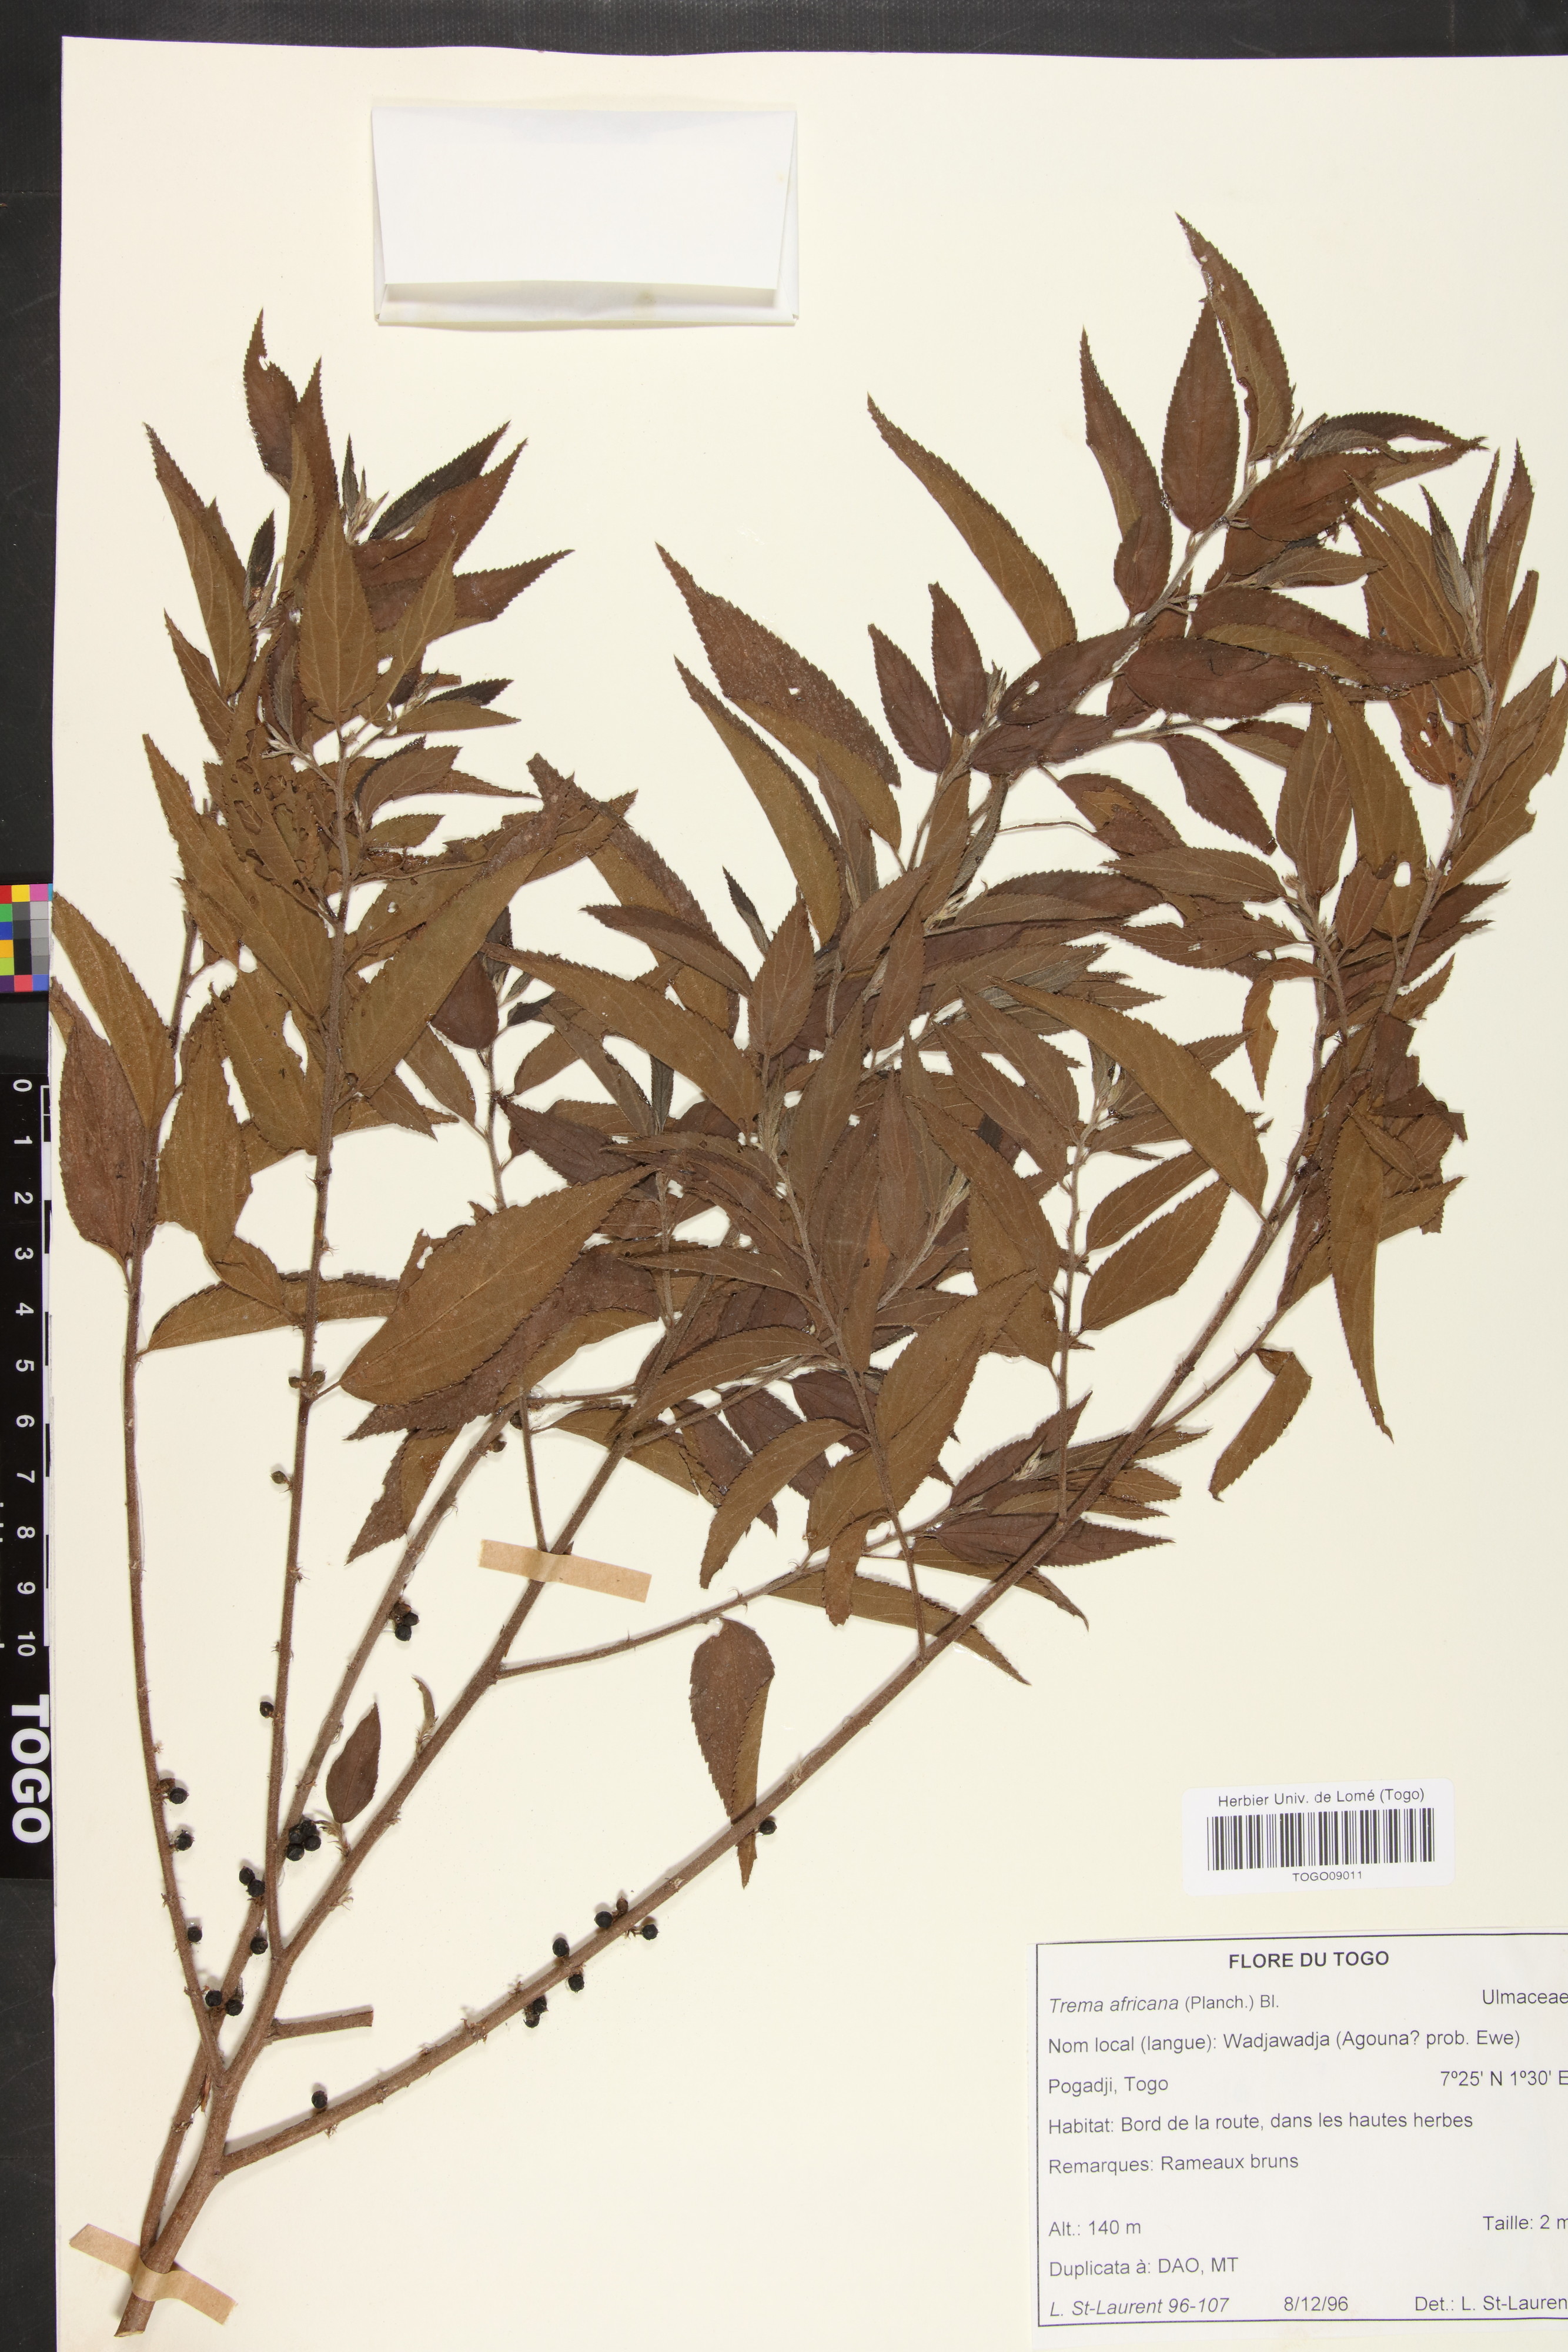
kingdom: Plantae
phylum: Tracheophyta
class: Magnoliopsida
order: Rosales
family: Cannabaceae
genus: Trema
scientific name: Trema orientale
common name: Indian charcoal tree
